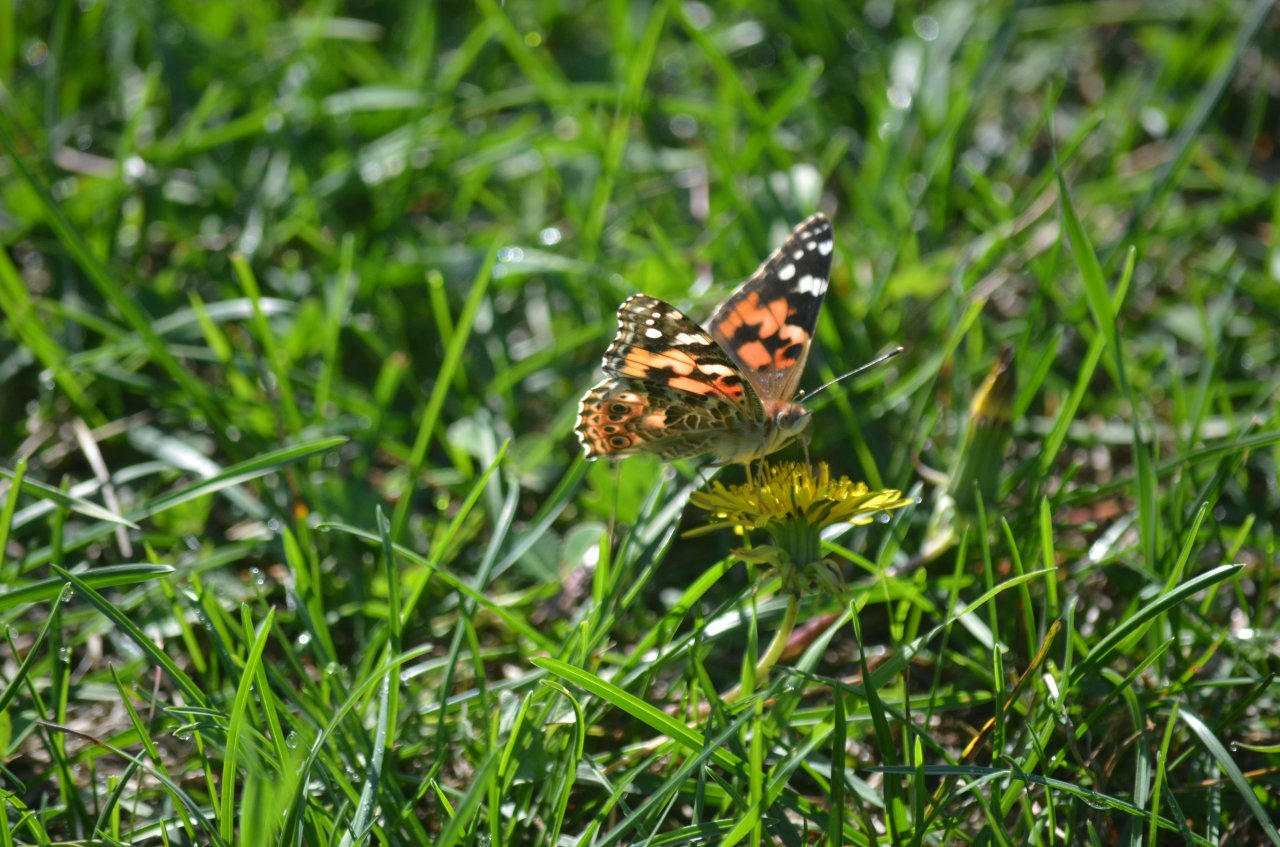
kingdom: Animalia
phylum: Arthropoda
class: Insecta
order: Lepidoptera
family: Nymphalidae
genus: Vanessa
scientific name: Vanessa cardui
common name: Painted Lady
